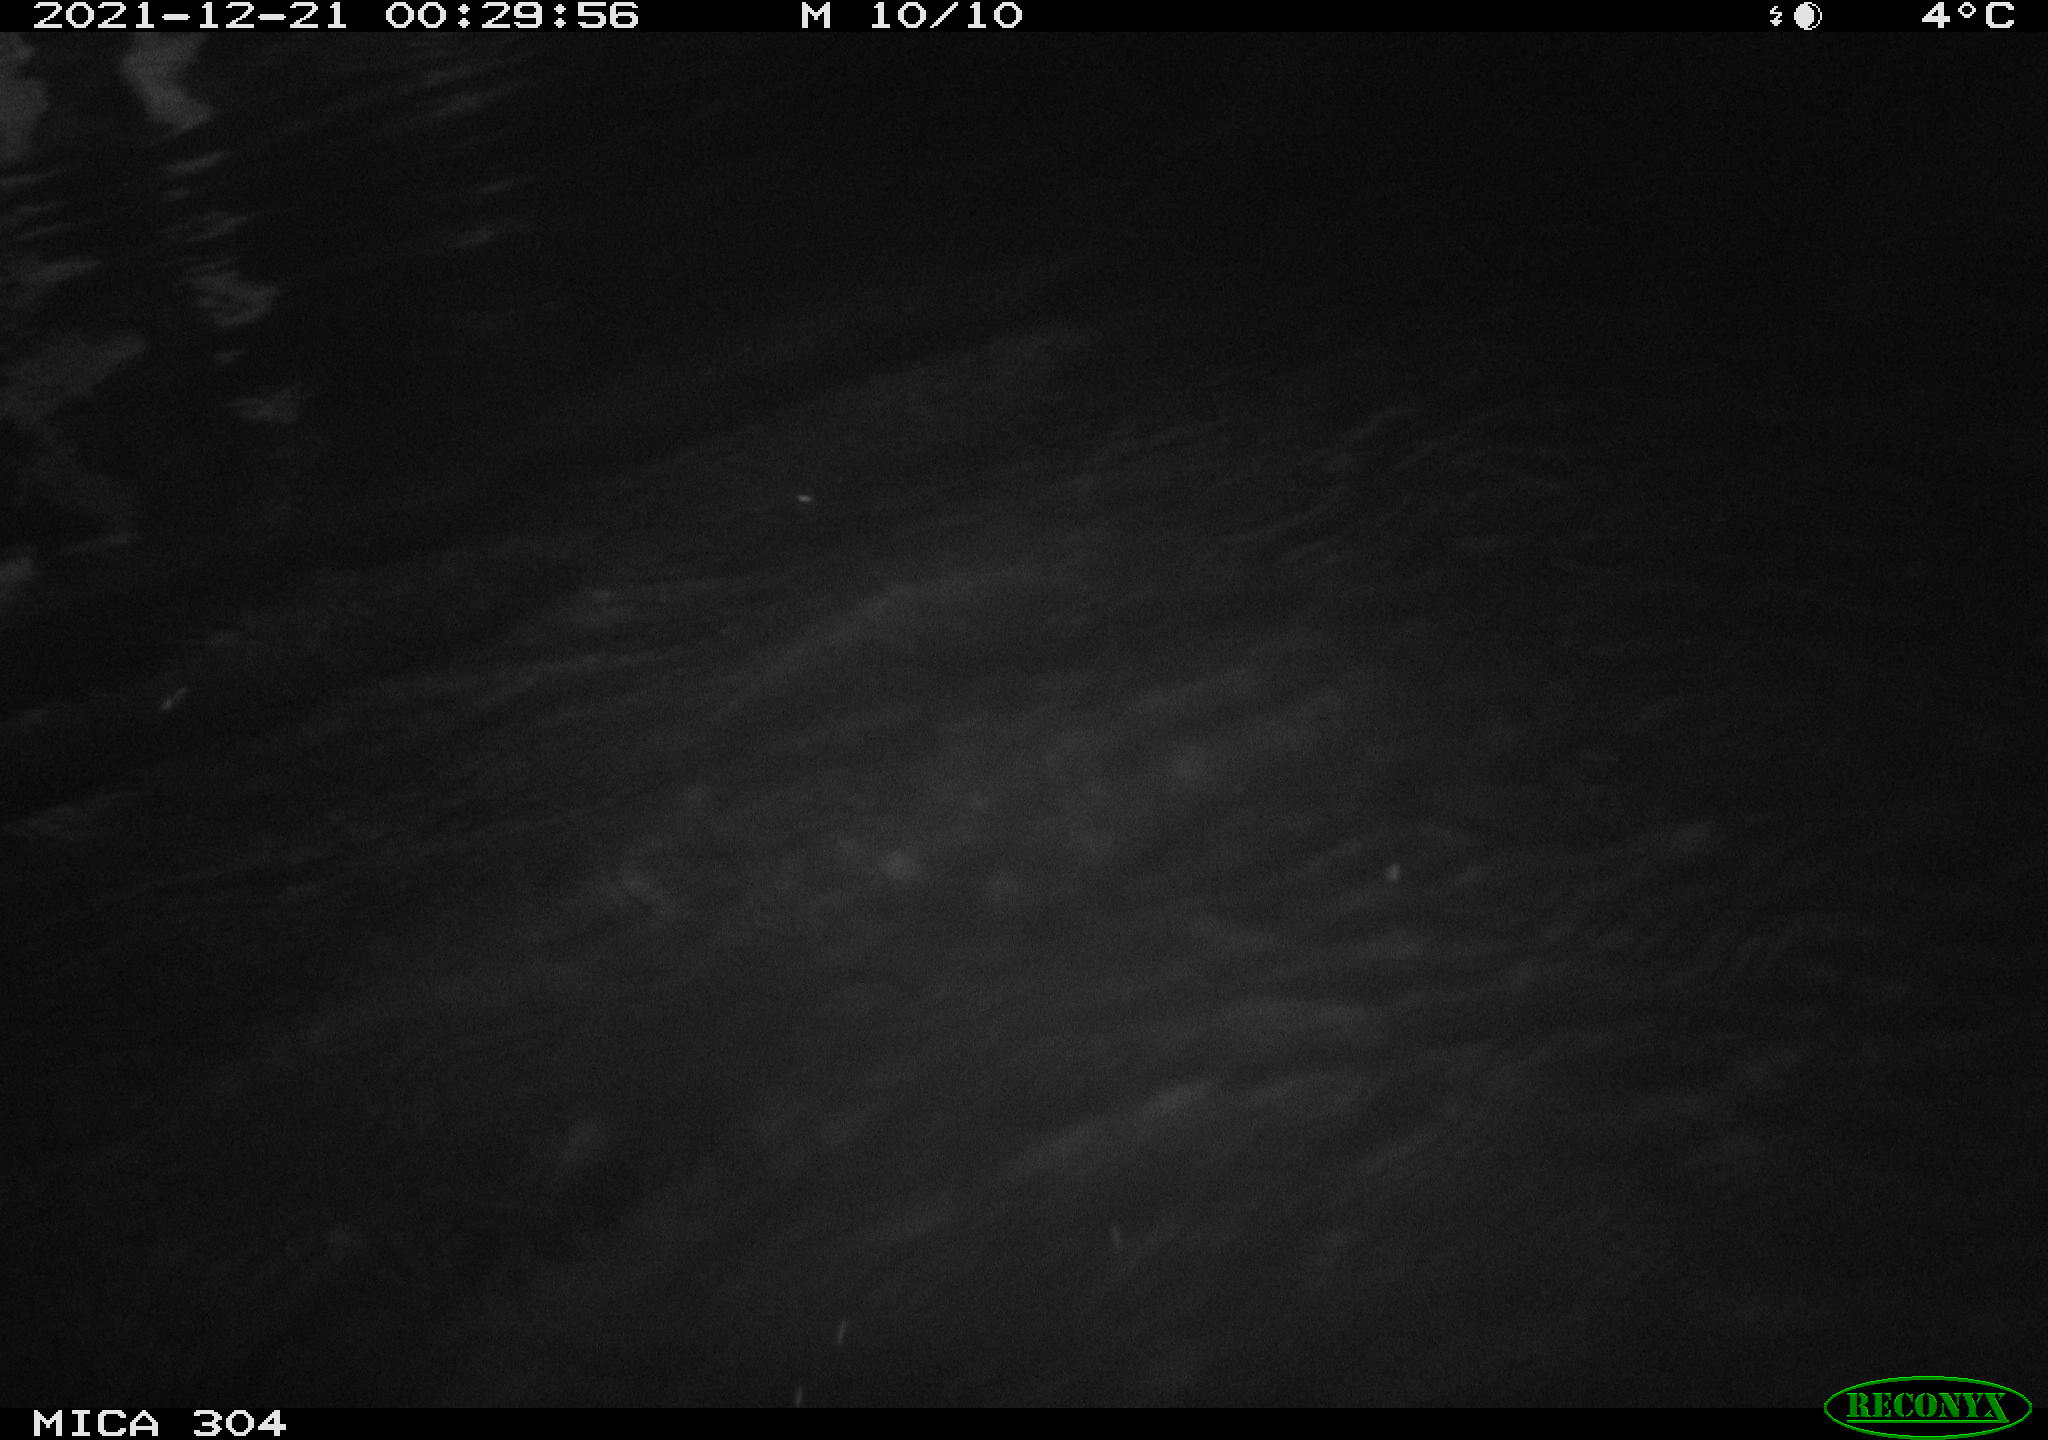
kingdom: Animalia
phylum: Chordata
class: Aves
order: Anseriformes
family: Anatidae
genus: Anas
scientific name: Anas
